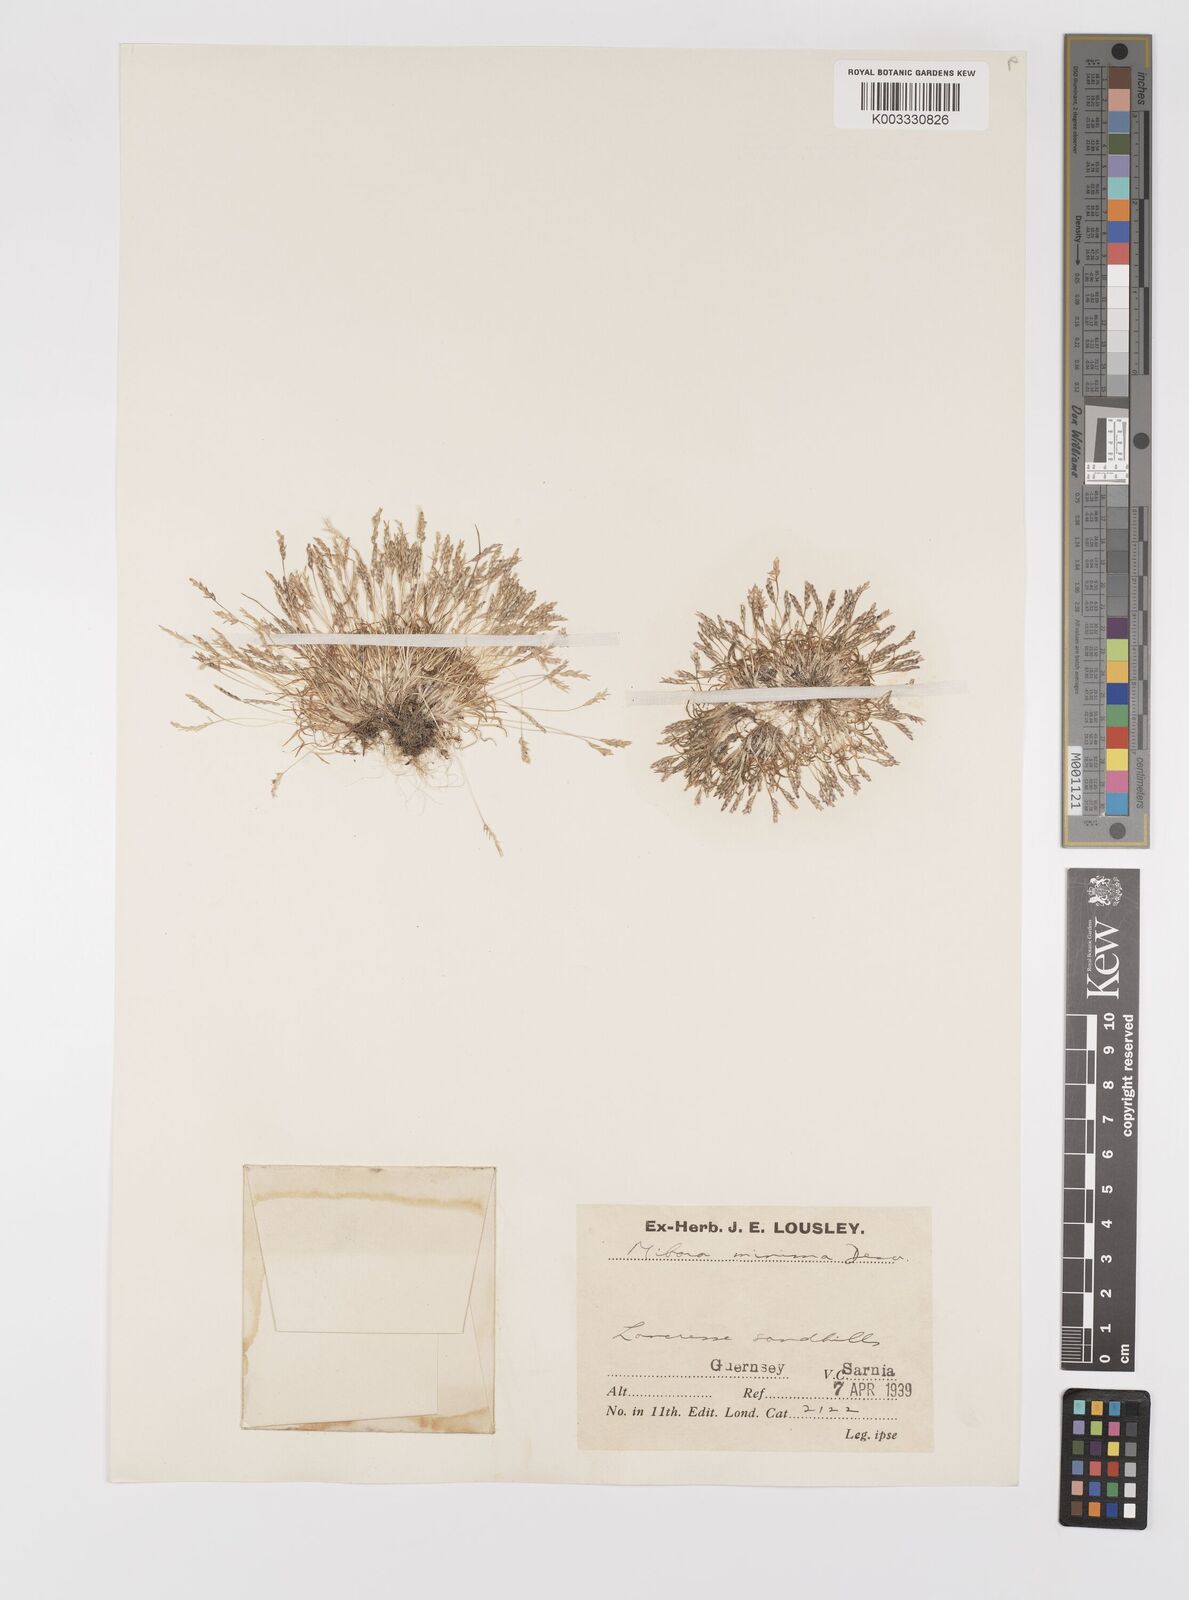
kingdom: Plantae
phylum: Tracheophyta
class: Liliopsida
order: Poales
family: Poaceae
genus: Mibora
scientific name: Mibora minima
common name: Early sand-grass
